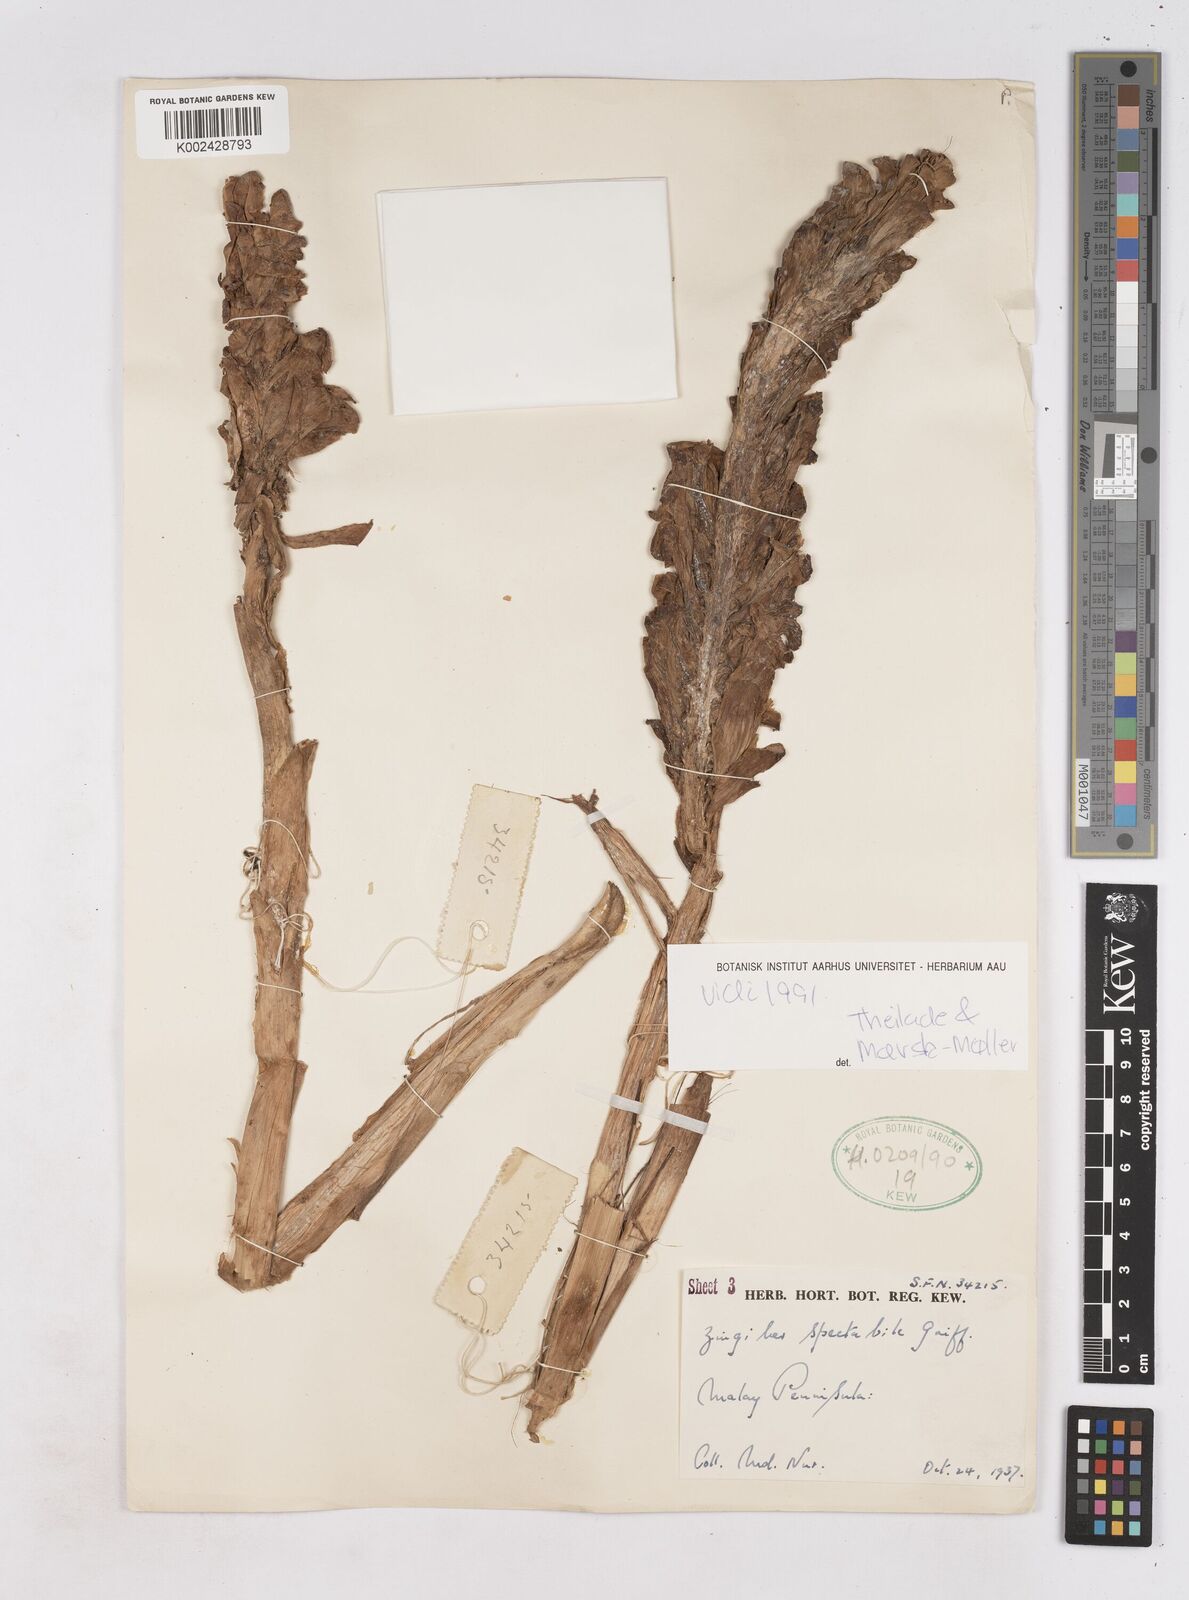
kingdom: Plantae
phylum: Tracheophyta
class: Liliopsida
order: Zingiberales
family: Zingiberaceae
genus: Zingiber
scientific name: Zingiber spectabile
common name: Beehive ginger
